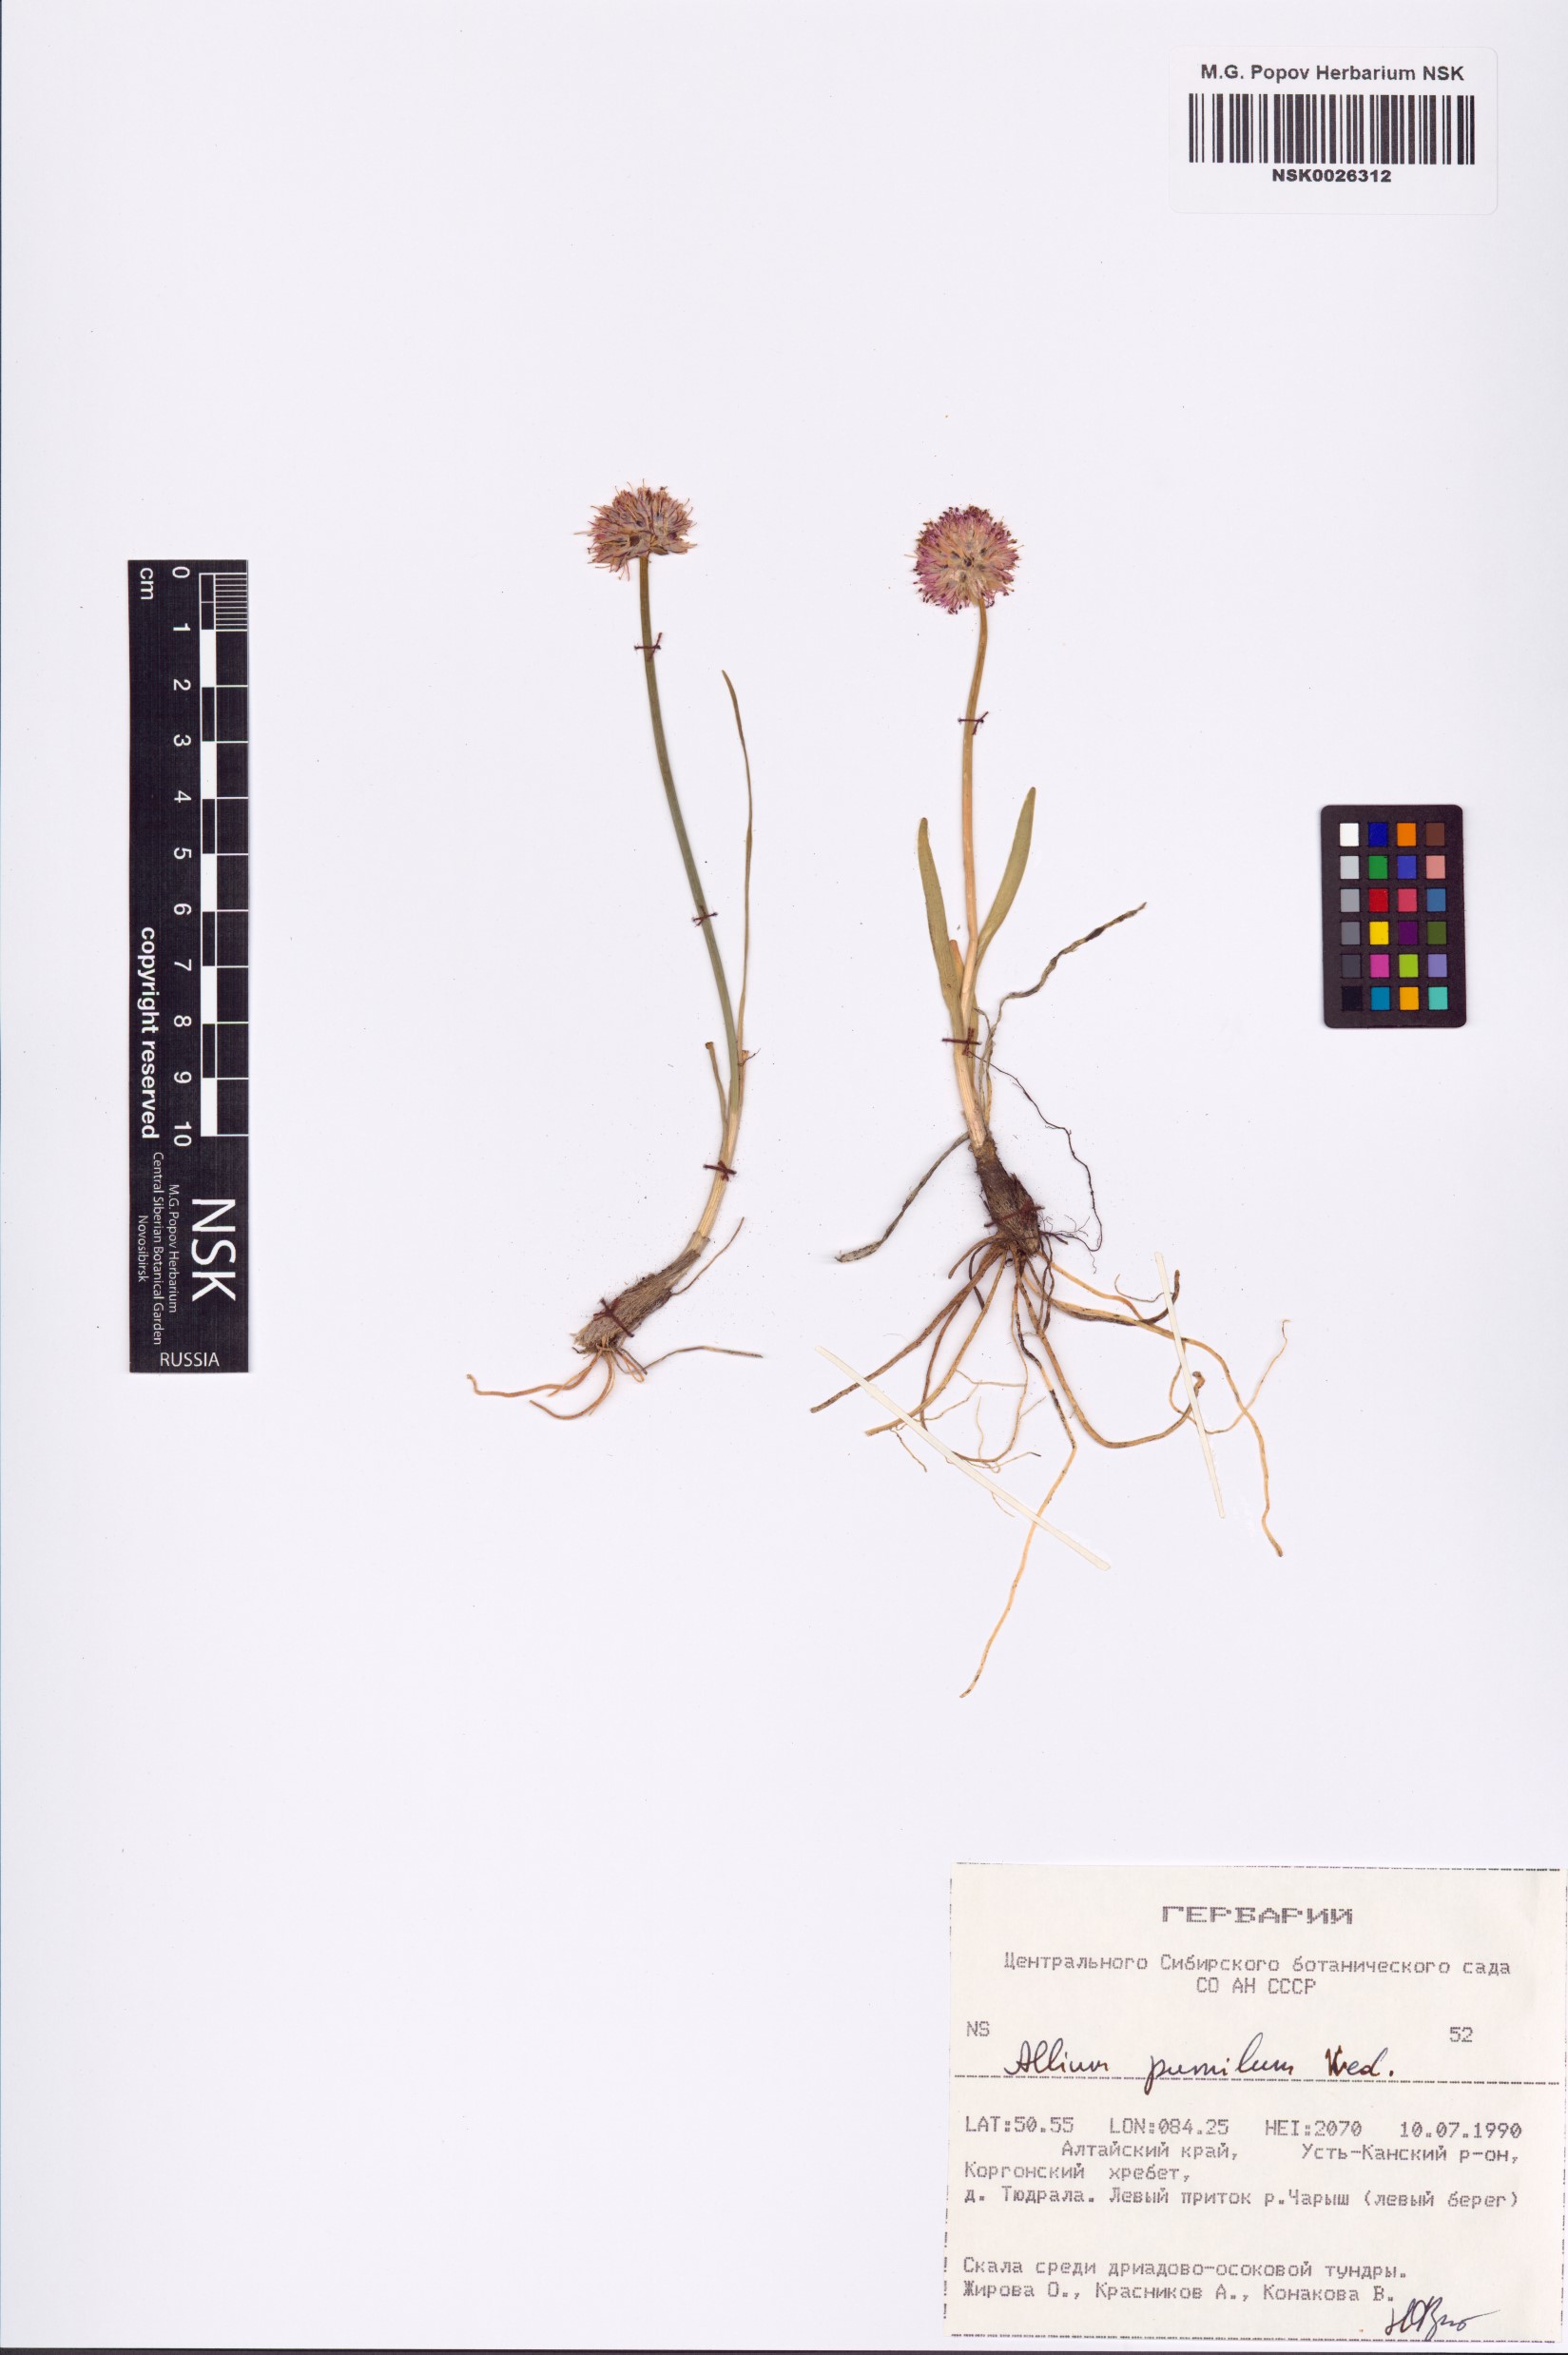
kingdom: Plantae
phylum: Tracheophyta
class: Liliopsida
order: Asparagales
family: Amaryllidaceae
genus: Allium
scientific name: Allium pumilum
